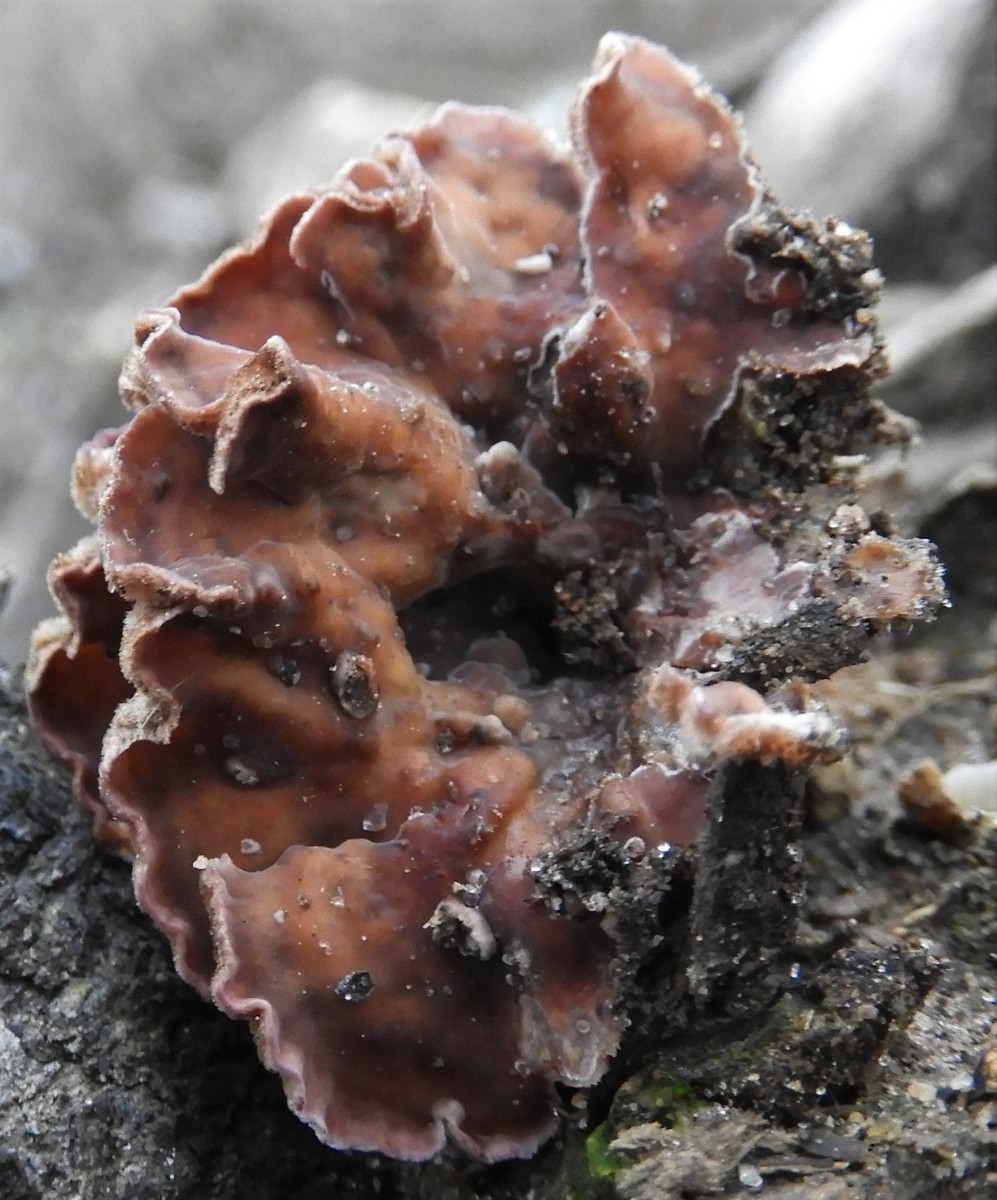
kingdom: Fungi
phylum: Basidiomycota
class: Agaricomycetes
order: Agaricales
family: Cyphellaceae
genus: Chondrostereum
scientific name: Chondrostereum purpureum
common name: purpurlædersvamp
